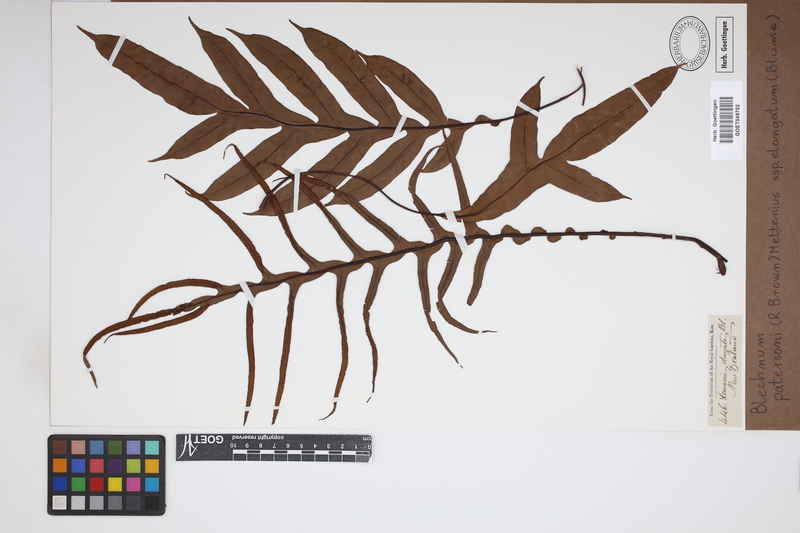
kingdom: Plantae
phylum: Tracheophyta
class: Polypodiopsida
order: Polypodiales
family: Blechnaceae
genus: Austroblechnum
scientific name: Austroblechnum melanocaulon
